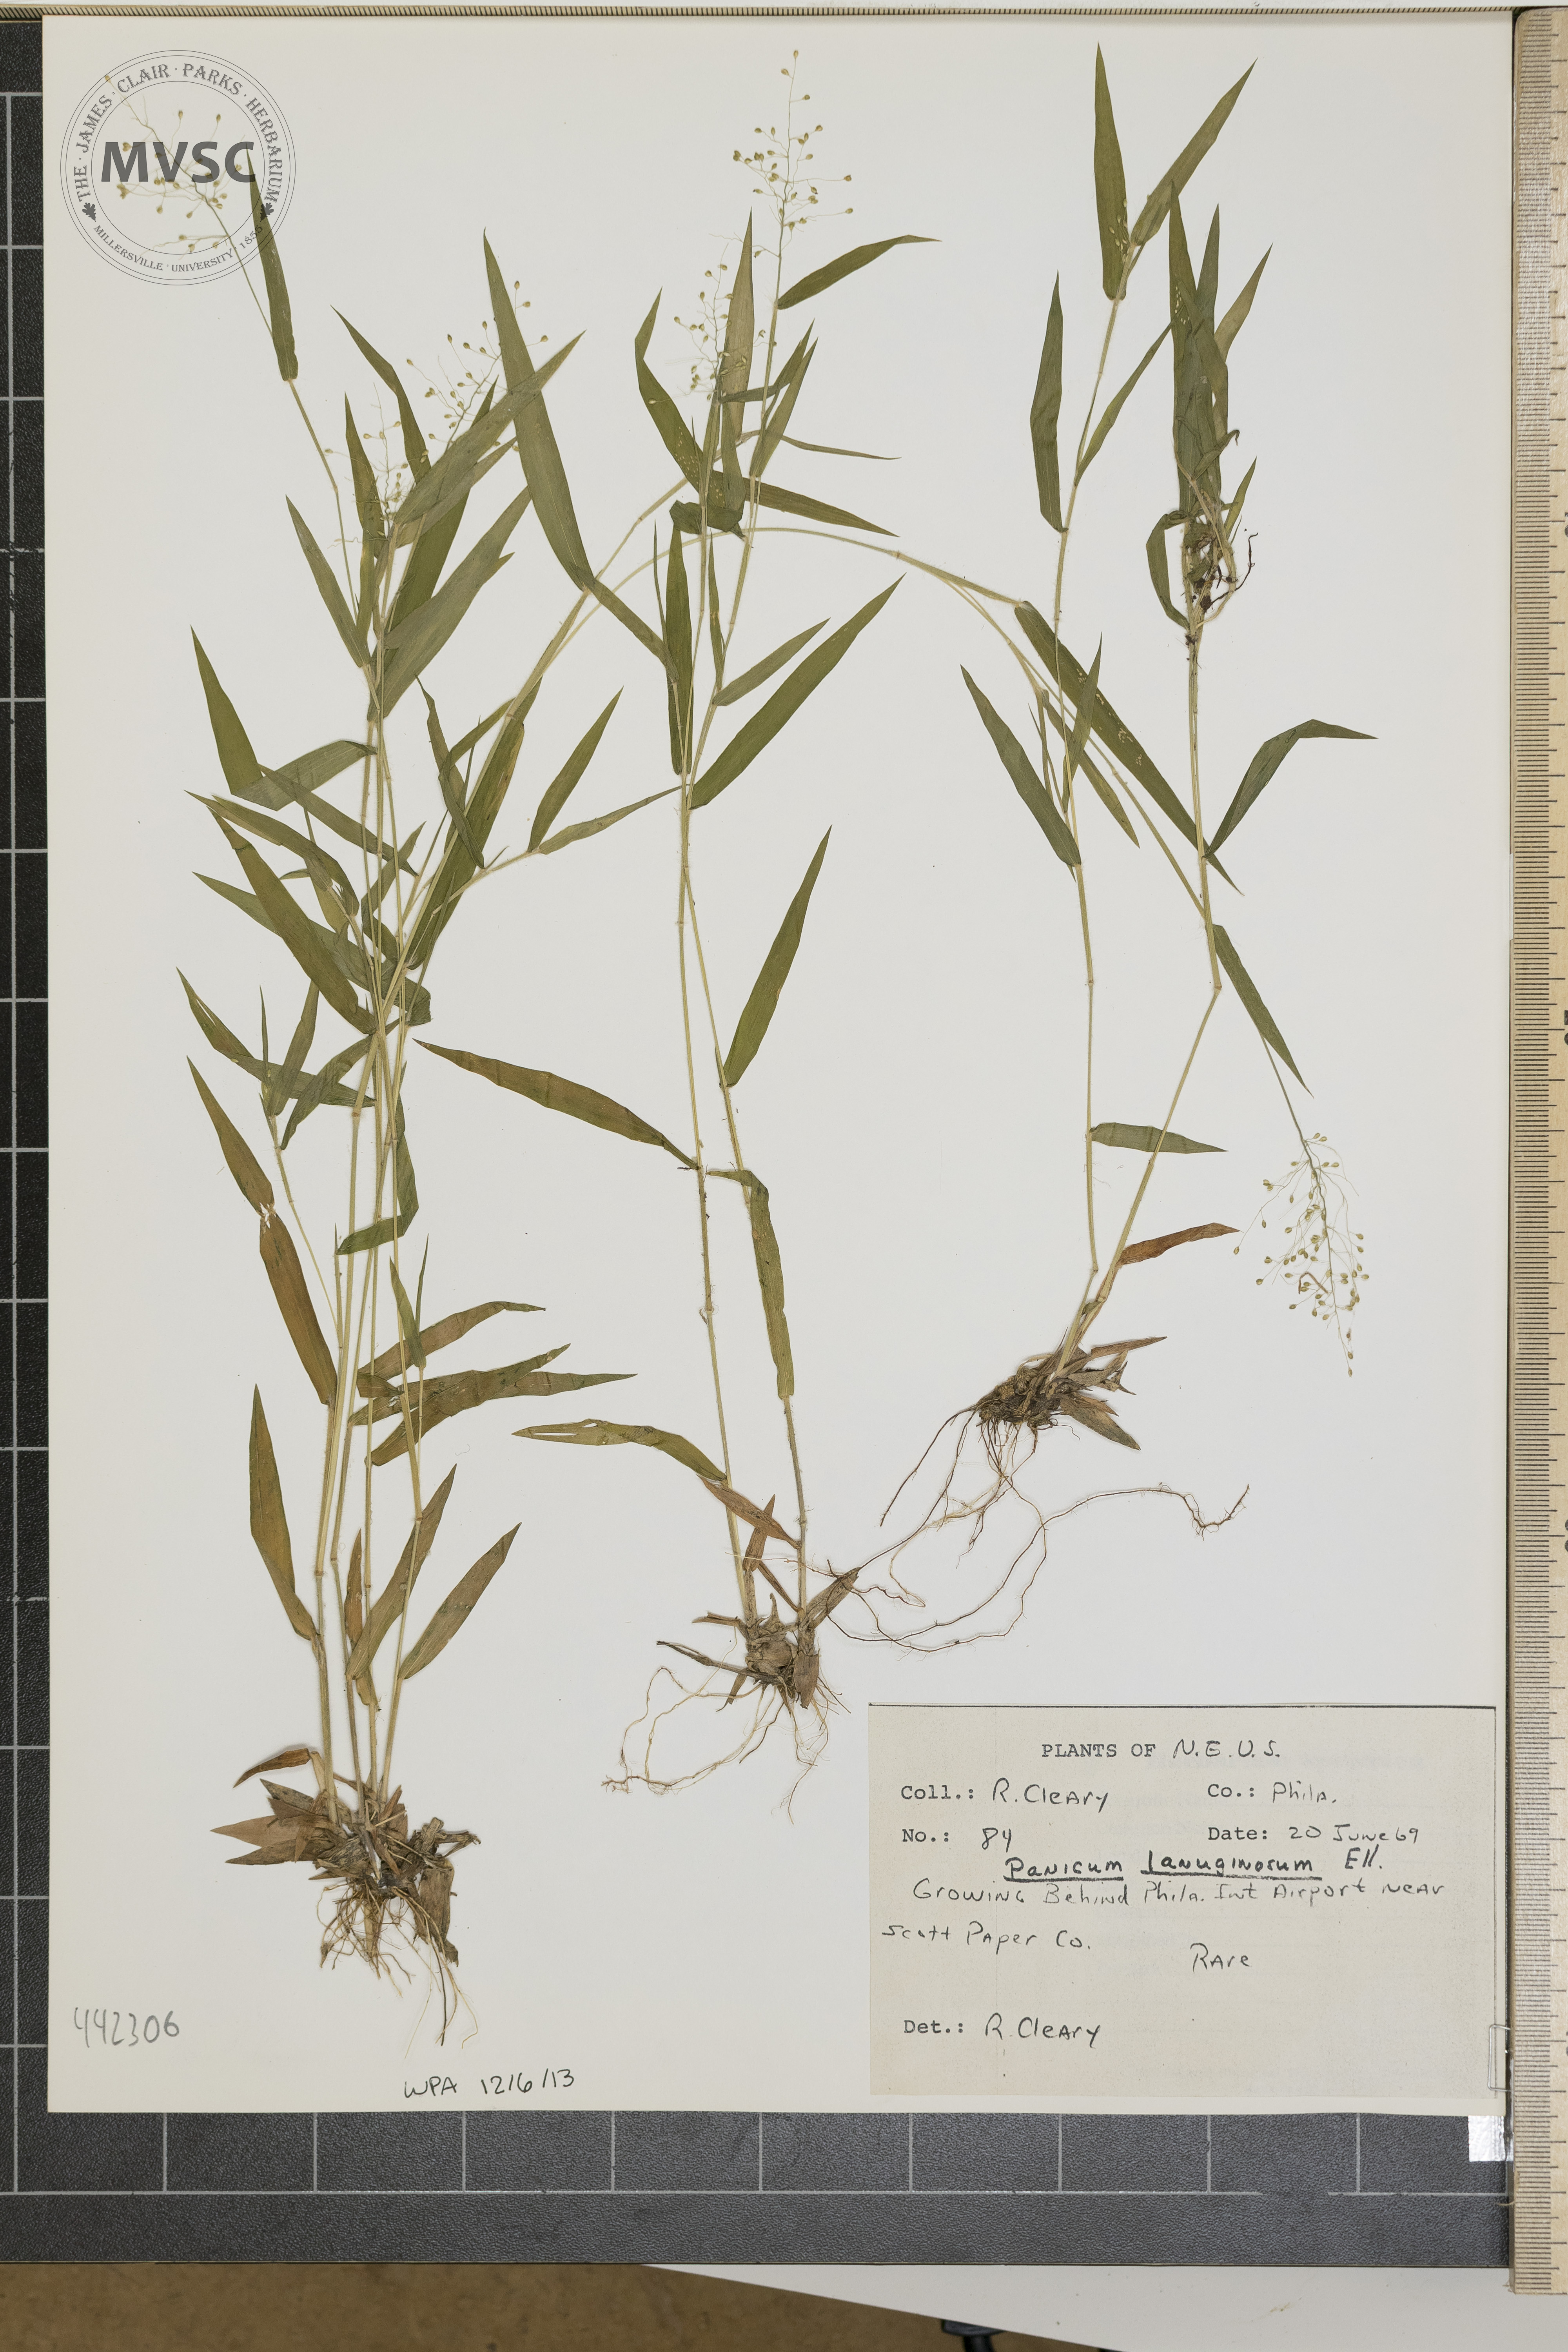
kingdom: Plantae
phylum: Tracheophyta
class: Liliopsida
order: Poales
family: Poaceae
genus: Dichanthelium
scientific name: Dichanthelium lanuginosum
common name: Woolly panicgrass
